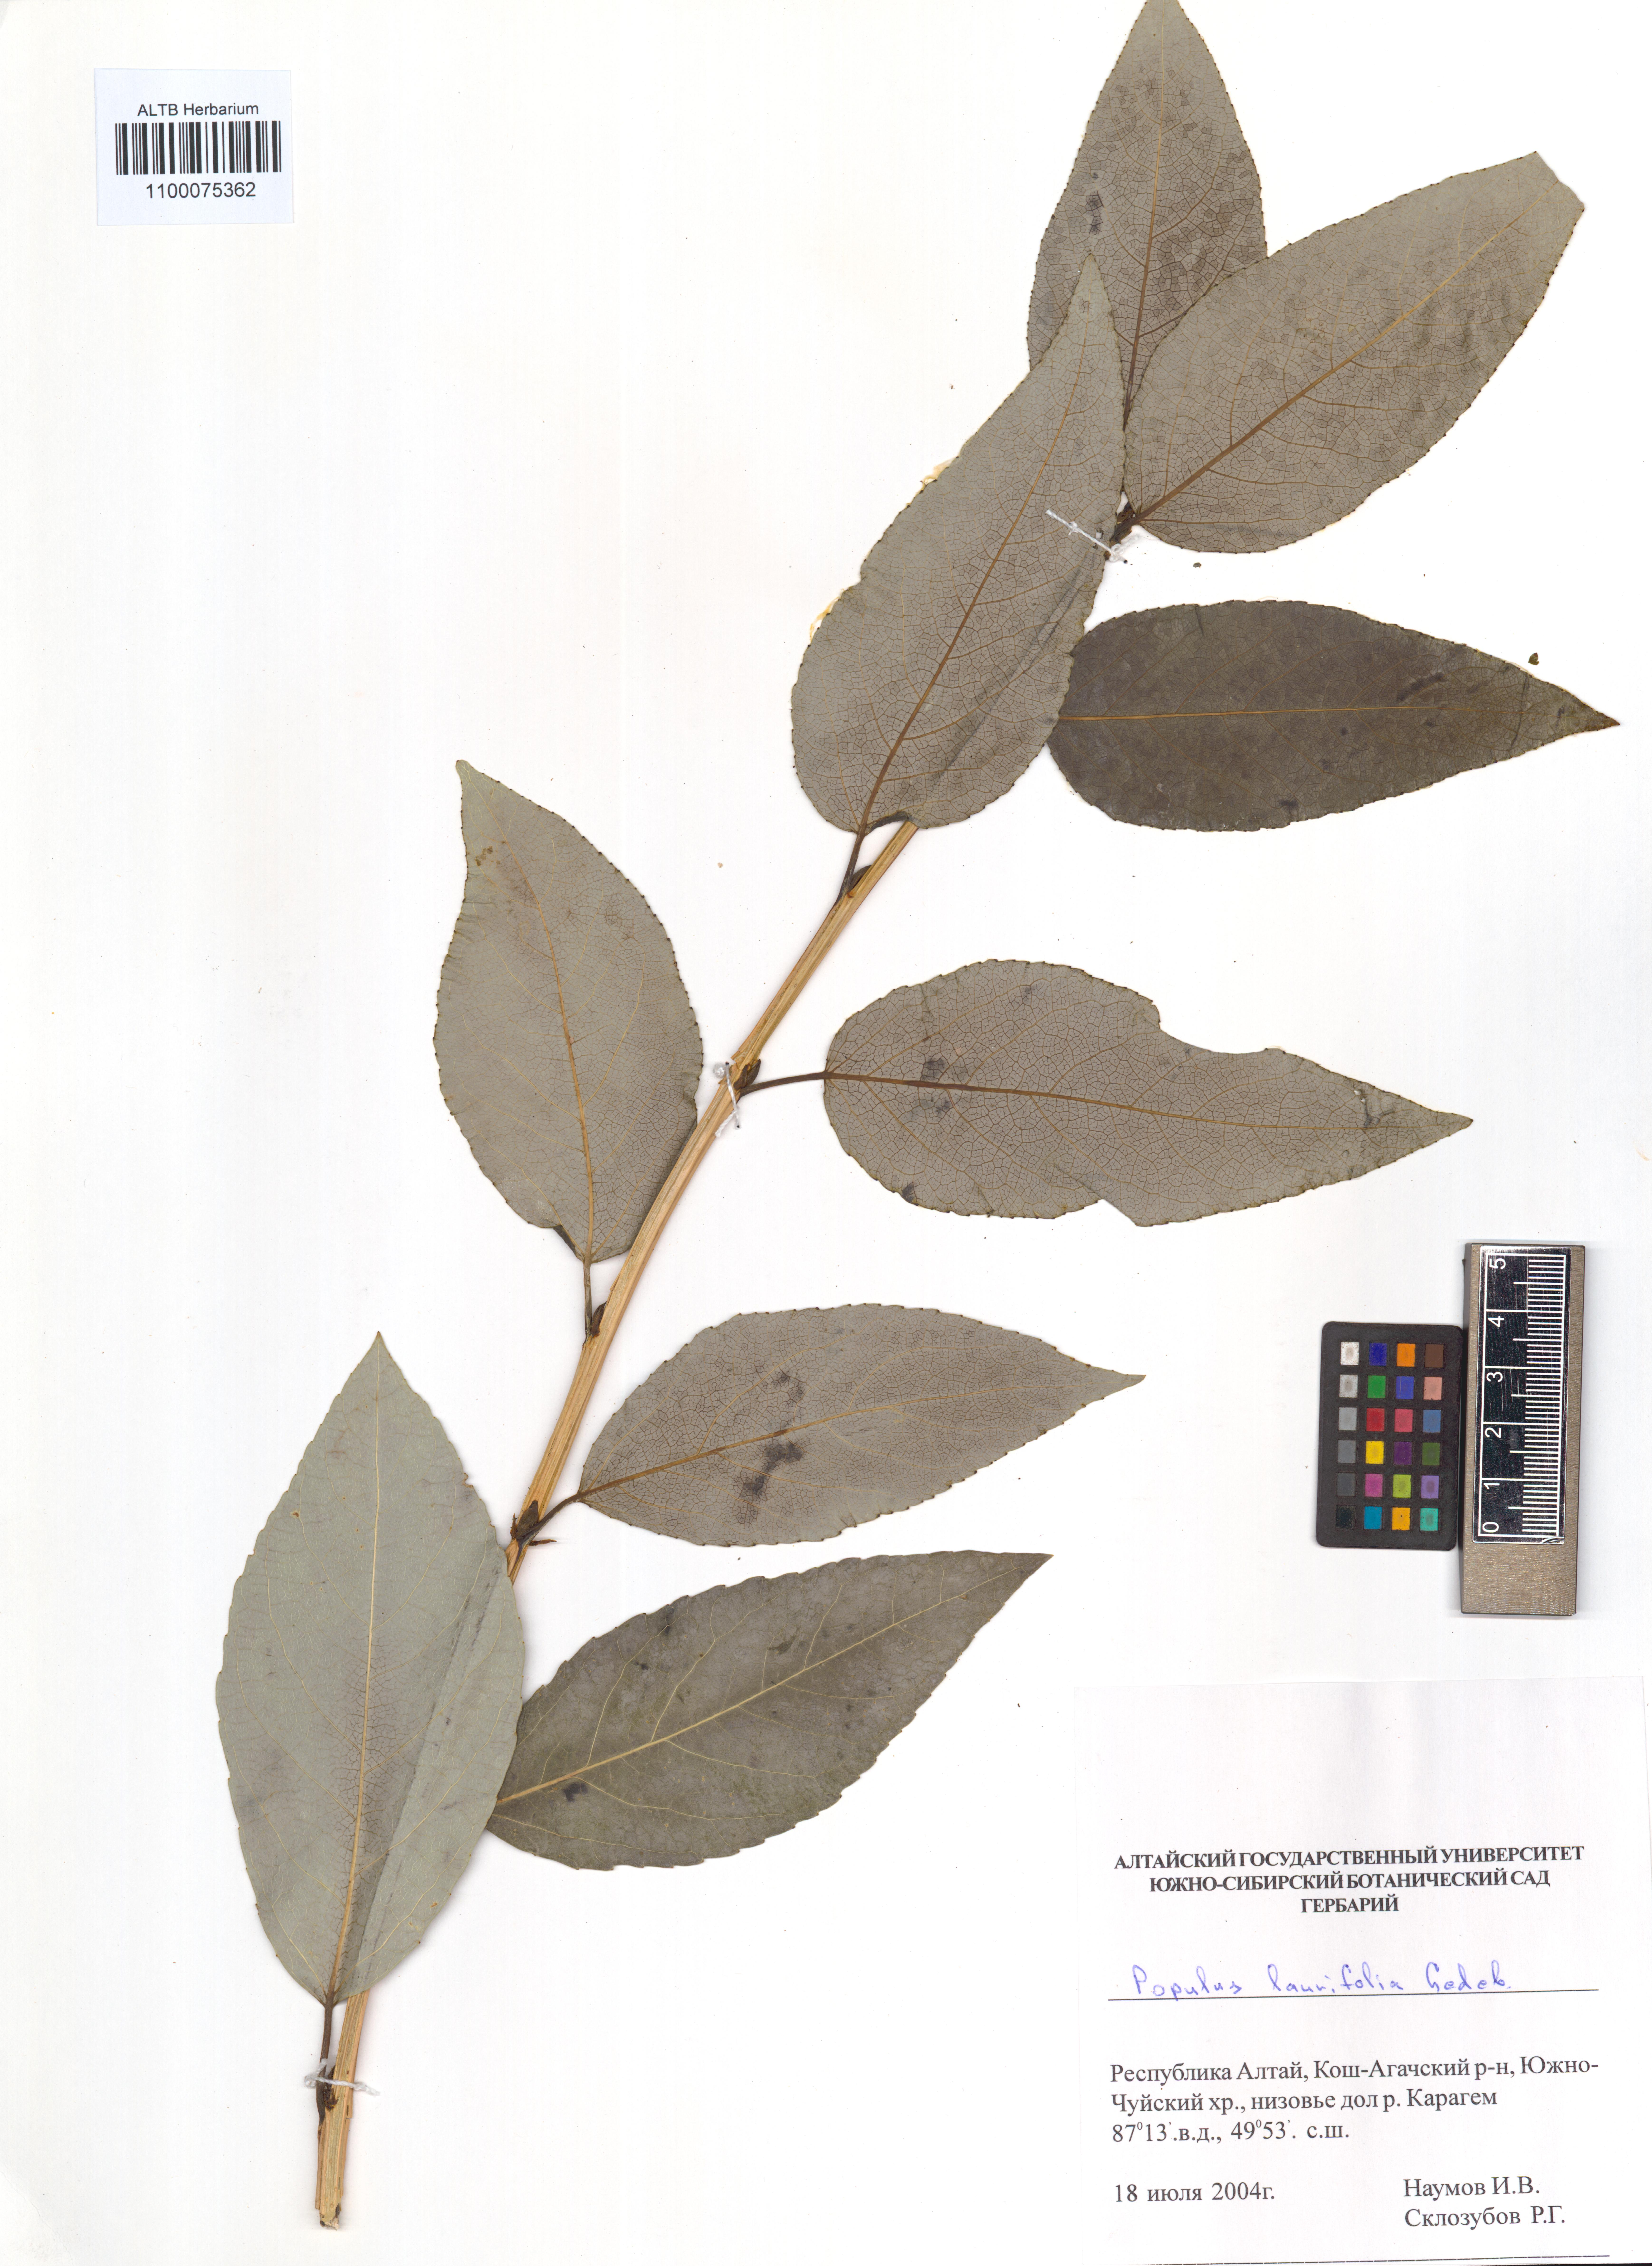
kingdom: Plantae
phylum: Tracheophyta
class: Magnoliopsida
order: Malpighiales
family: Salicaceae
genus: Populus
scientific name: Populus laurifolia
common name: Laurel-leaf poplar
